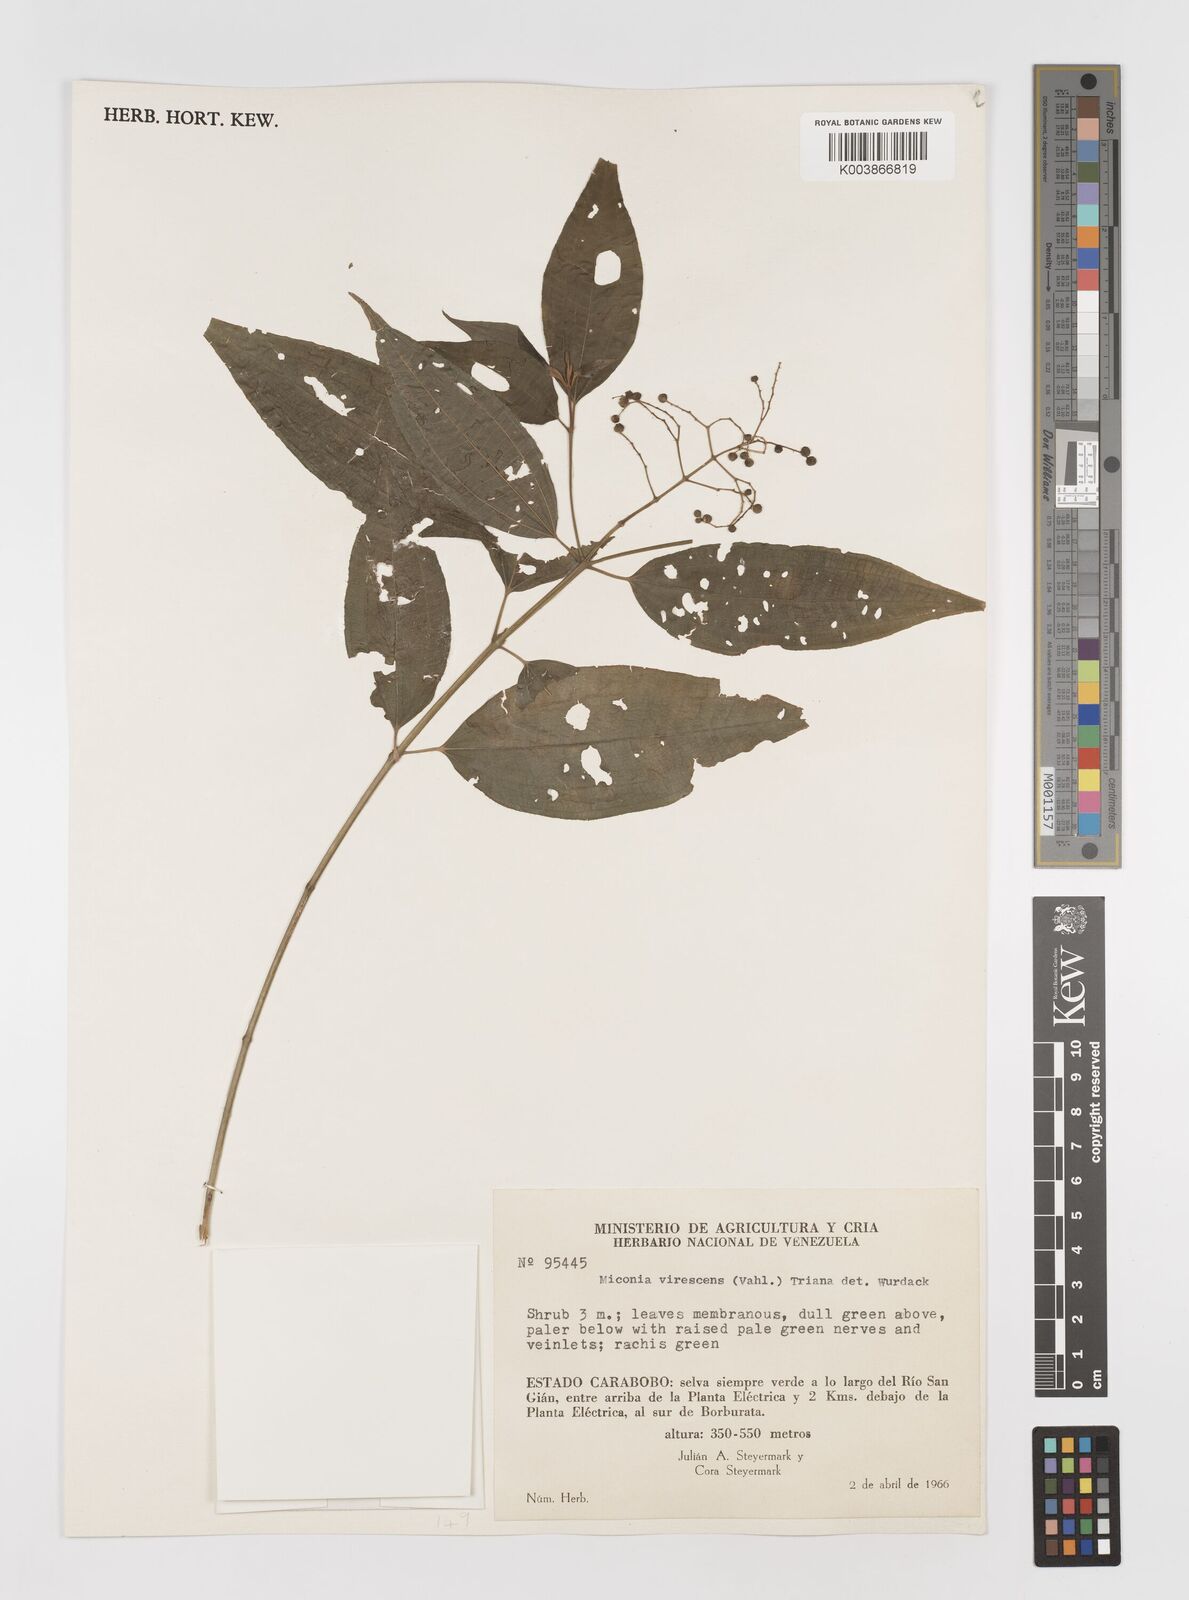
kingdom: Plantae
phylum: Tracheophyta
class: Magnoliopsida
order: Myrtales
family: Melastomataceae
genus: Miconia
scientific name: Miconia virescens
